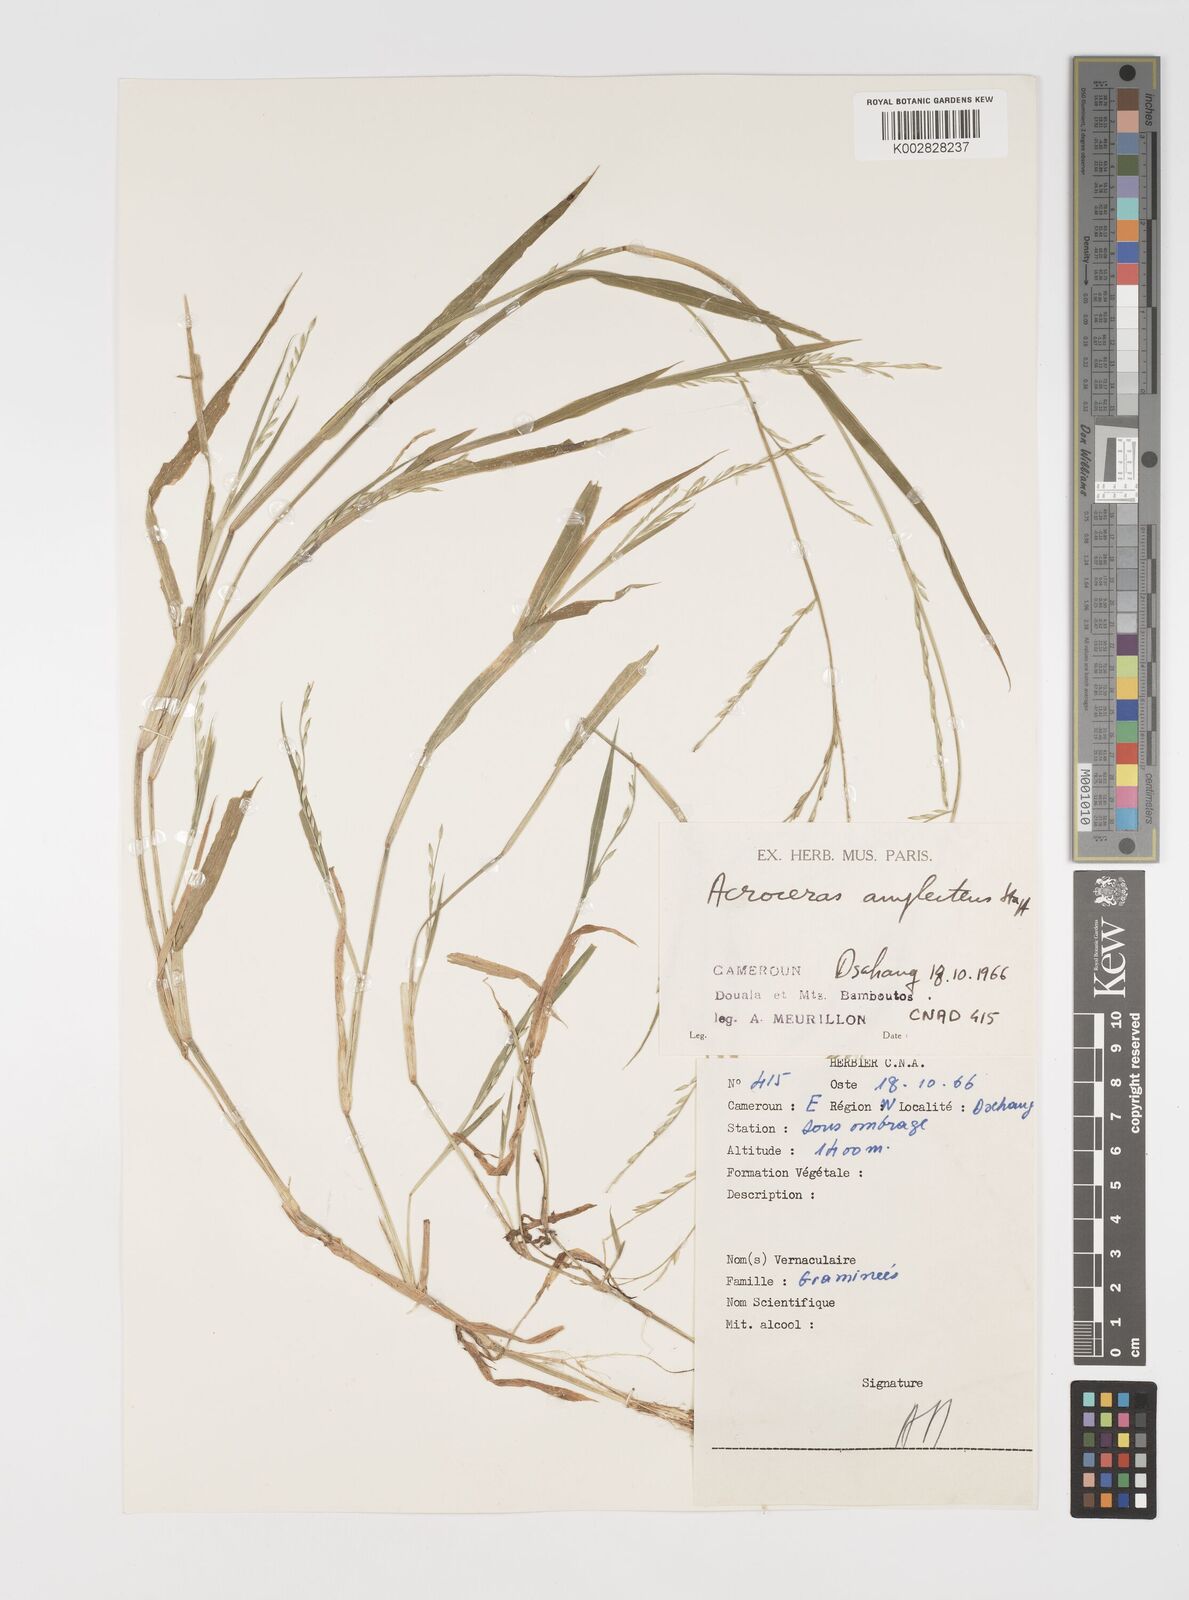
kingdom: Plantae
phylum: Tracheophyta
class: Liliopsida
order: Poales
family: Poaceae
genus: Acroceras
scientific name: Acroceras amplectens
